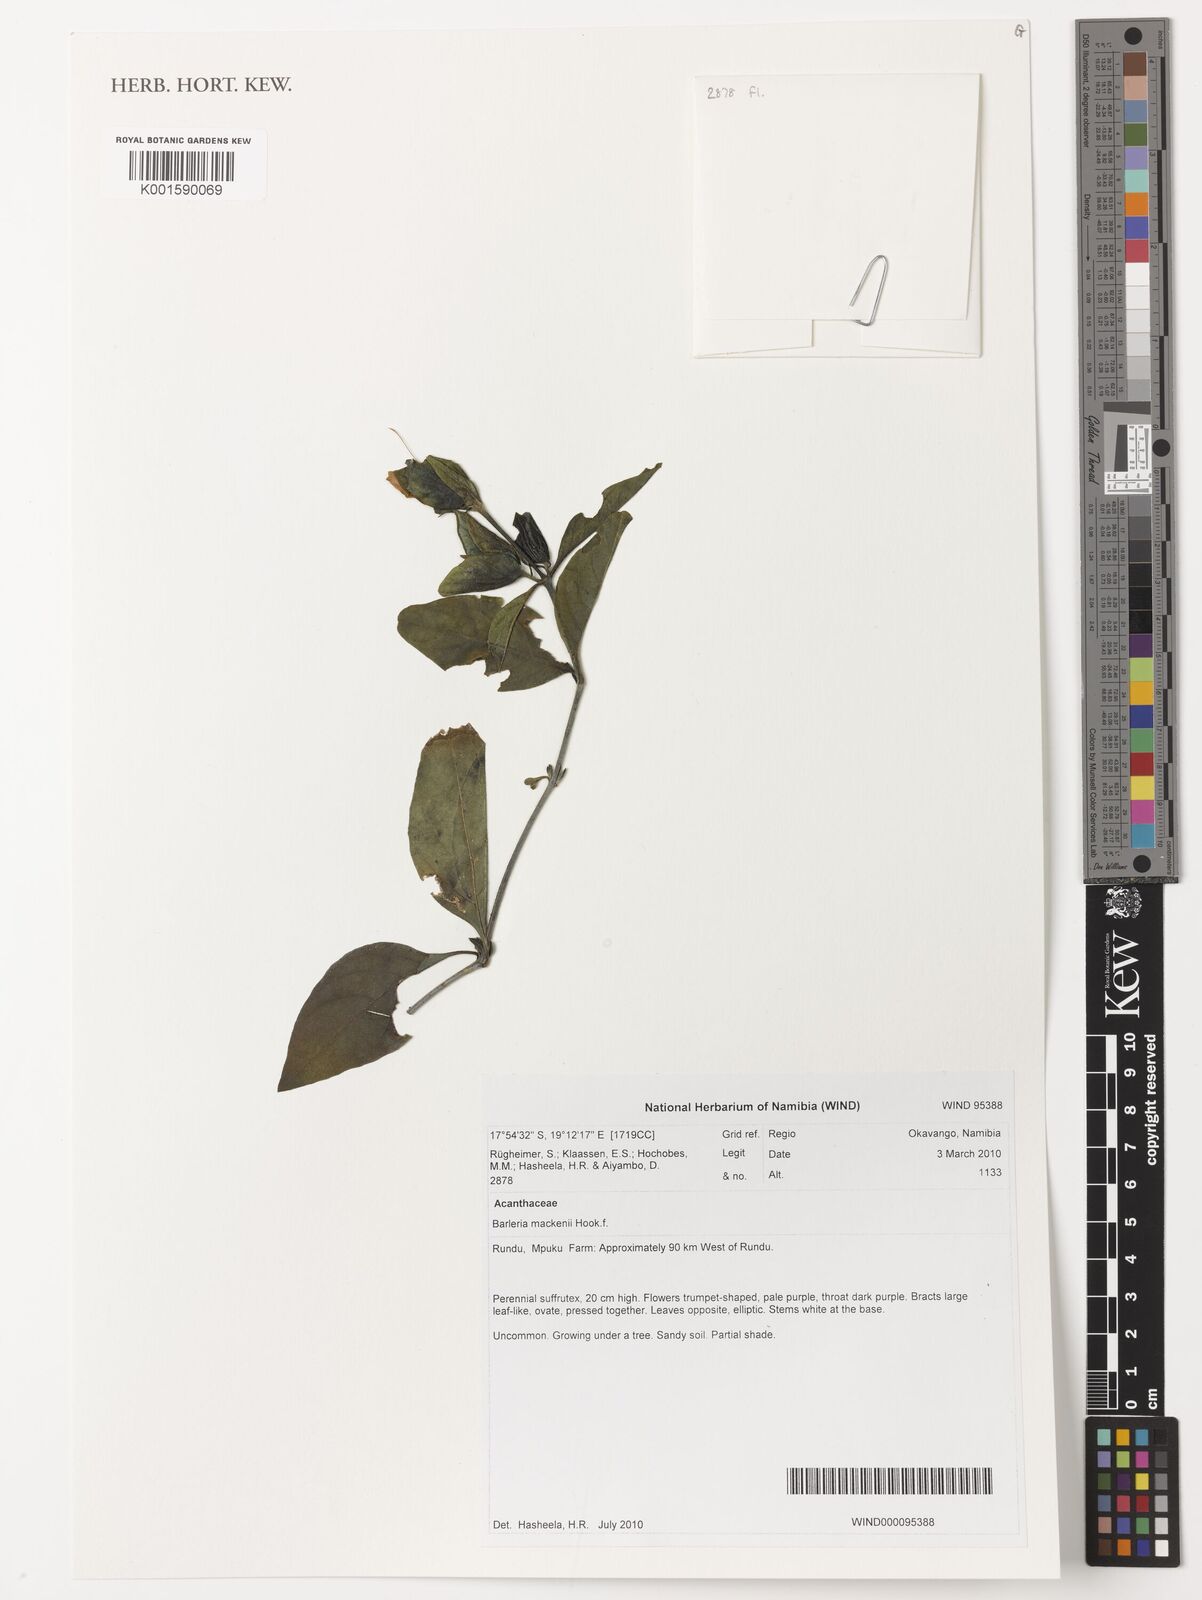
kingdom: Plantae
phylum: Tracheophyta
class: Magnoliopsida
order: Lamiales
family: Acanthaceae
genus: Barleria
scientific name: Barleria mackenii
